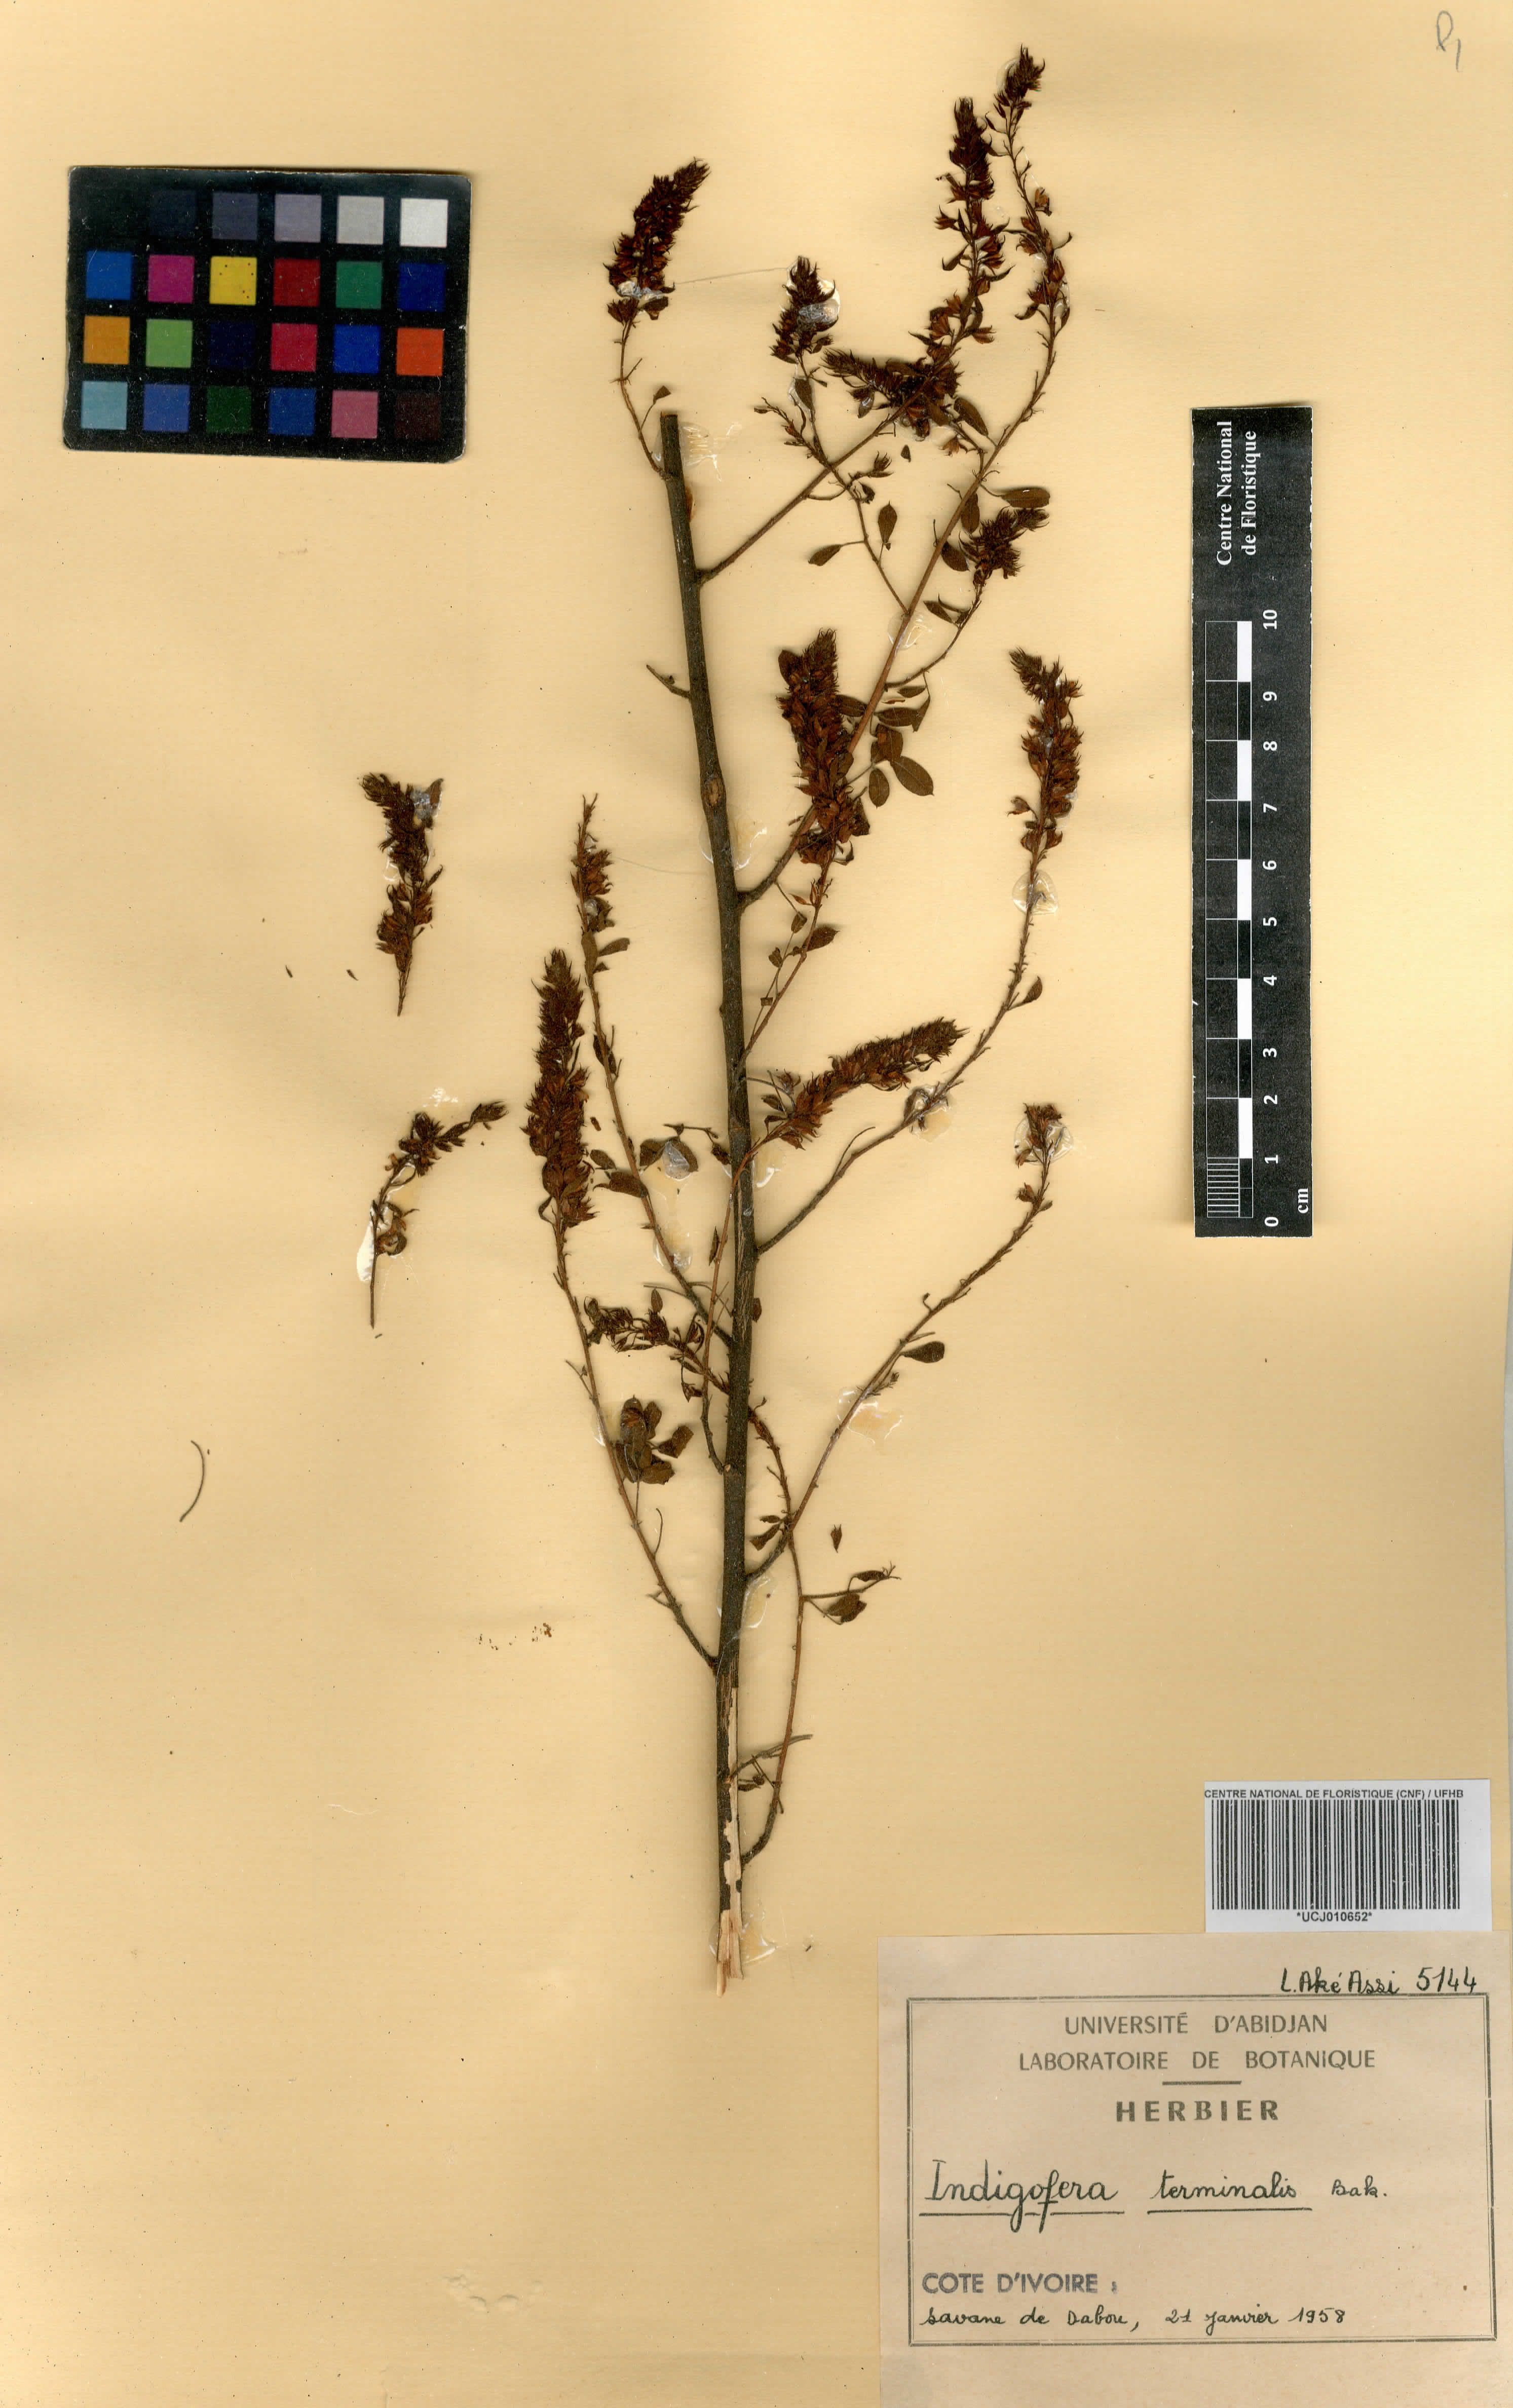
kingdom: Plantae
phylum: Tracheophyta
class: Magnoliopsida
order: Fabales
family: Fabaceae
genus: Indigofera
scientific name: Indigofera suffruticosa
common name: Anil de pasto
